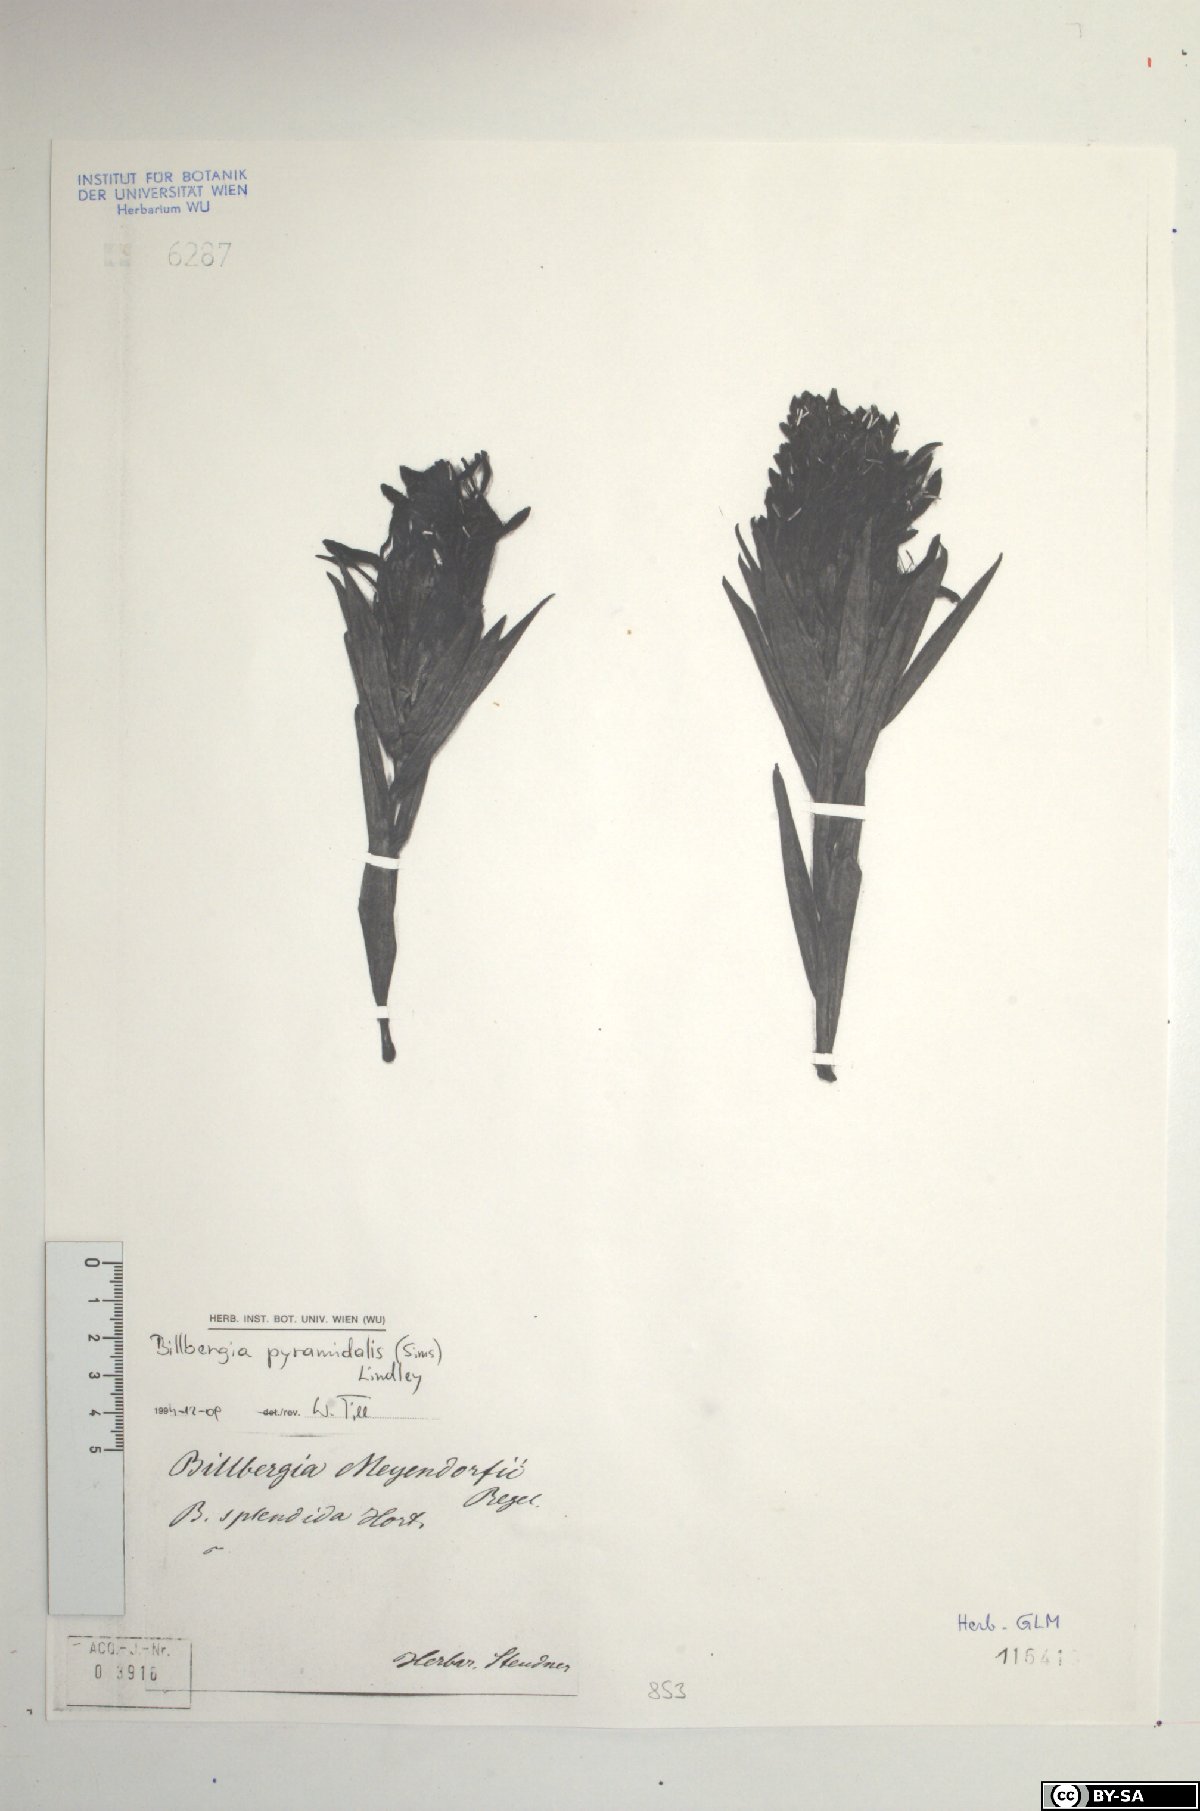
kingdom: Plantae
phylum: Tracheophyta
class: Liliopsida
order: Poales
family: Bromeliaceae
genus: Billbergia
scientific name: Billbergia pyramidalis
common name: Foolproofplant
